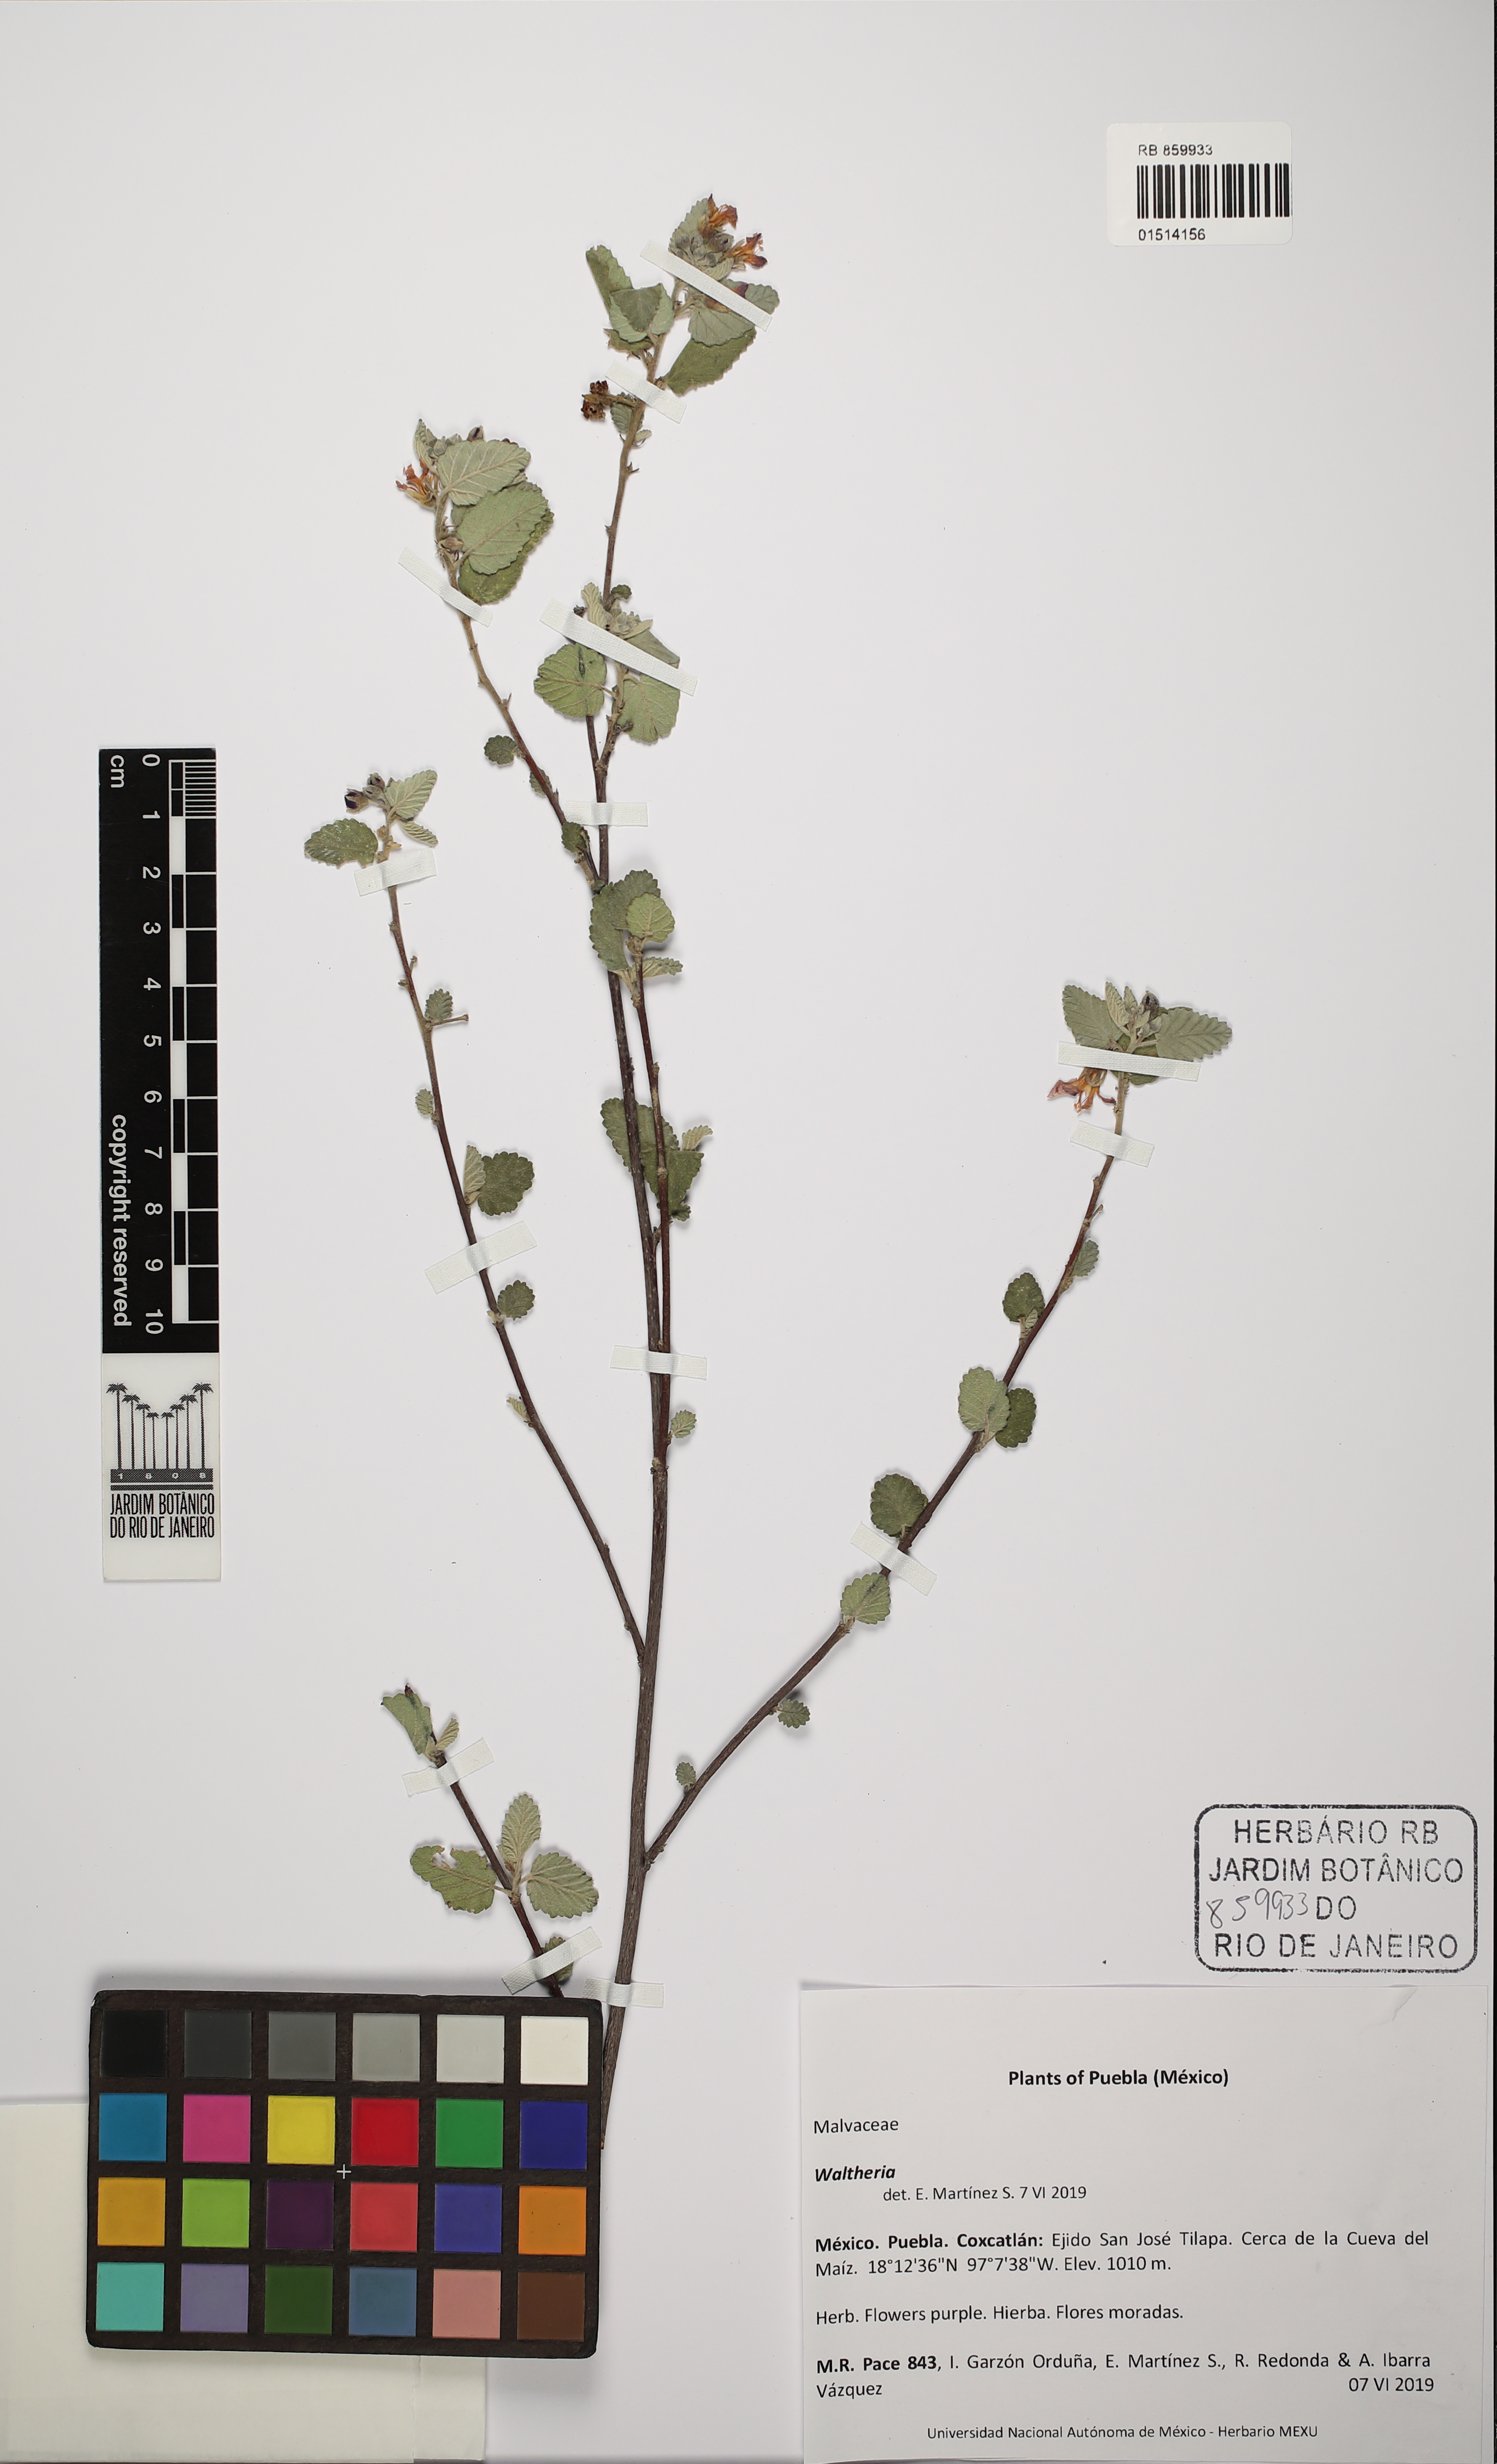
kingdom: Plantae
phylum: Tracheophyta
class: Magnoliopsida
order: Malvales
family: Malvaceae
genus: Waltheria
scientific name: Waltheria
